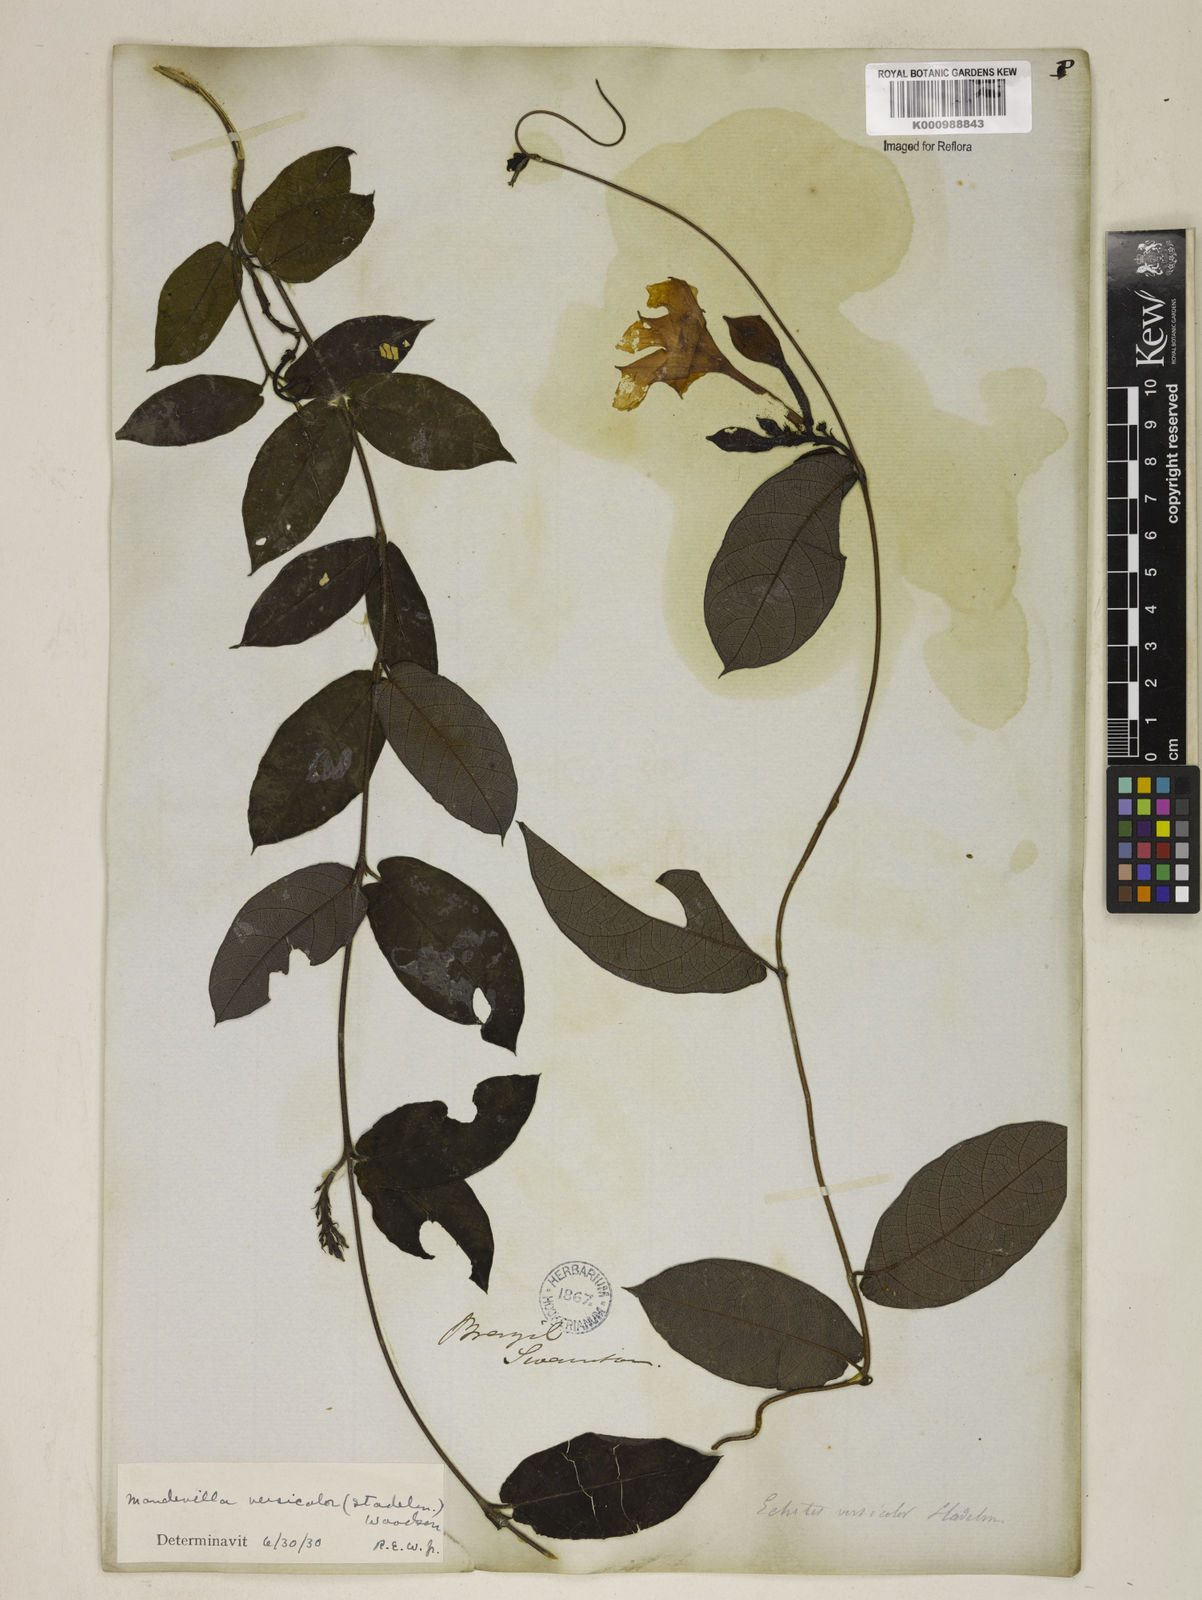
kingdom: Plantae
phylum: Tracheophyta
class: Magnoliopsida
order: Gentianales
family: Apocynaceae
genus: Mandevilla
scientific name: Mandevilla scabra
